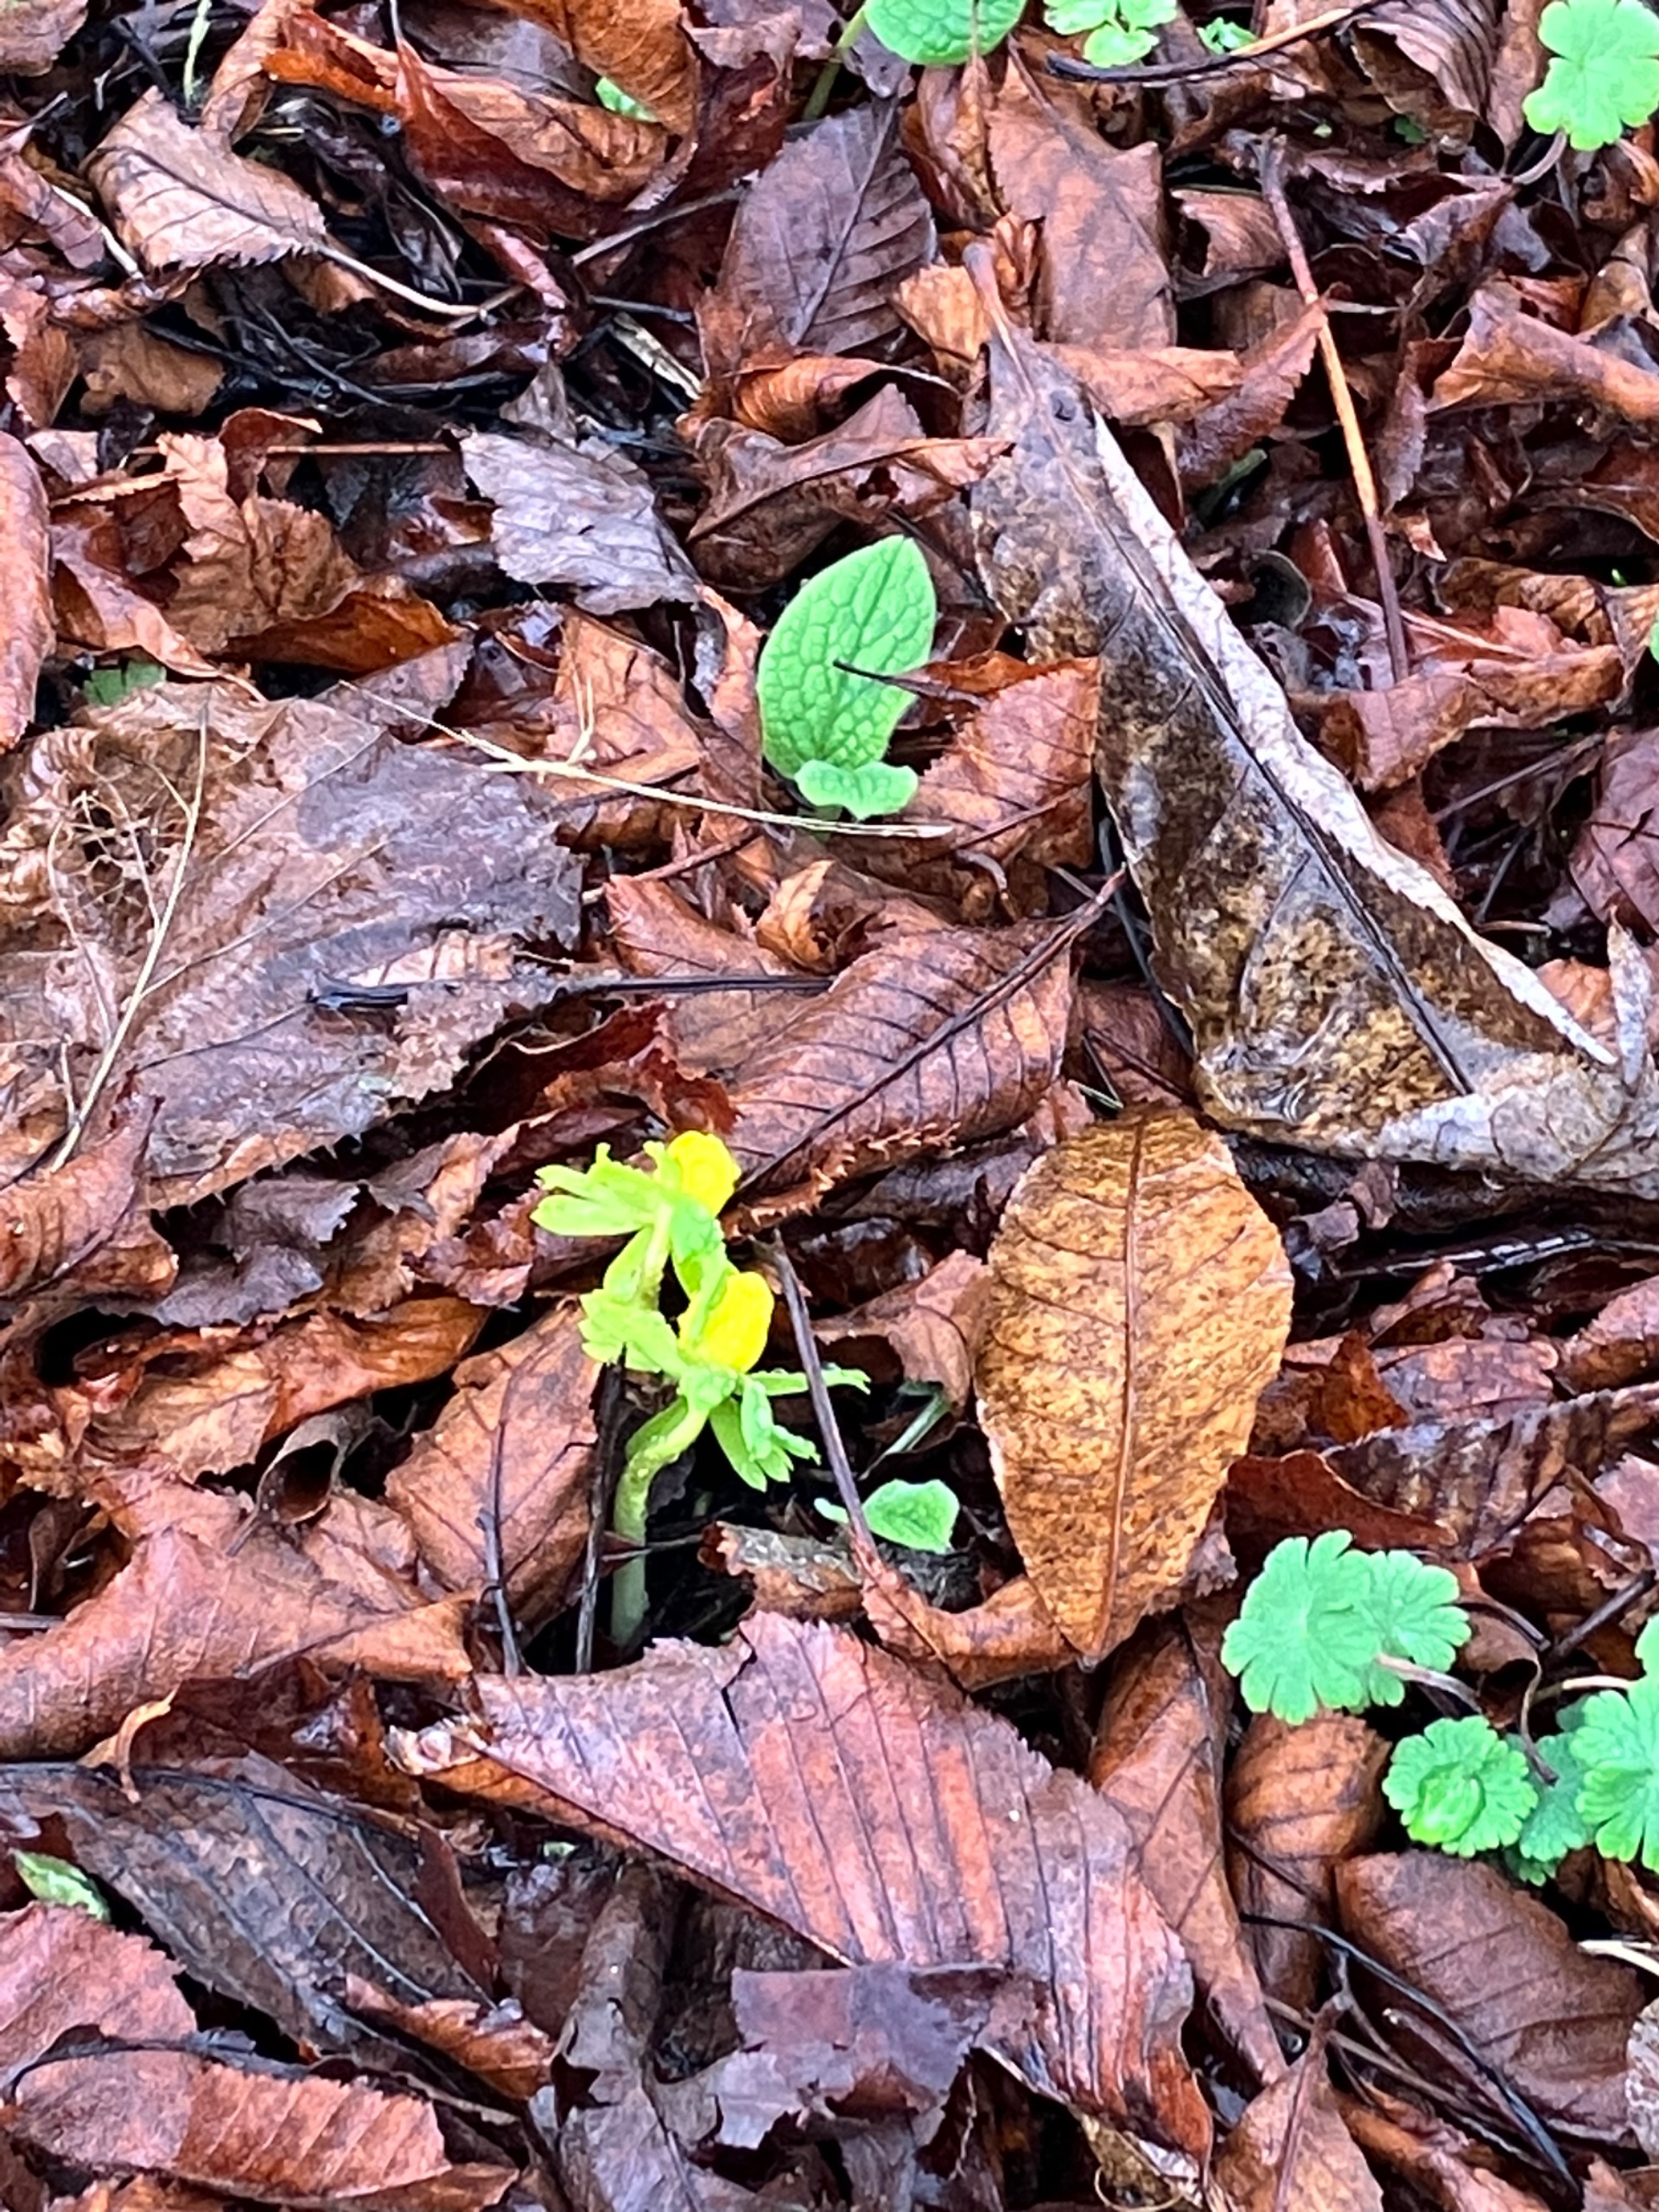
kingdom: Plantae
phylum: Tracheophyta
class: Magnoliopsida
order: Ranunculales
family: Ranunculaceae
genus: Eranthis
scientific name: Eranthis hyemalis
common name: Erantis
